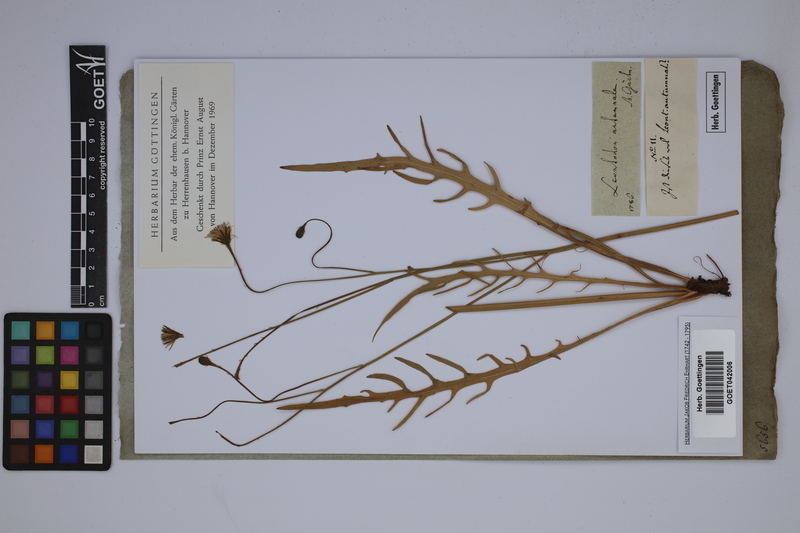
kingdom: Plantae
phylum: Tracheophyta
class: Magnoliopsida
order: Asterales
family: Asteraceae
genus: Scorzoneroides
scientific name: Scorzoneroides autumnalis
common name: Autumn hawkbit
